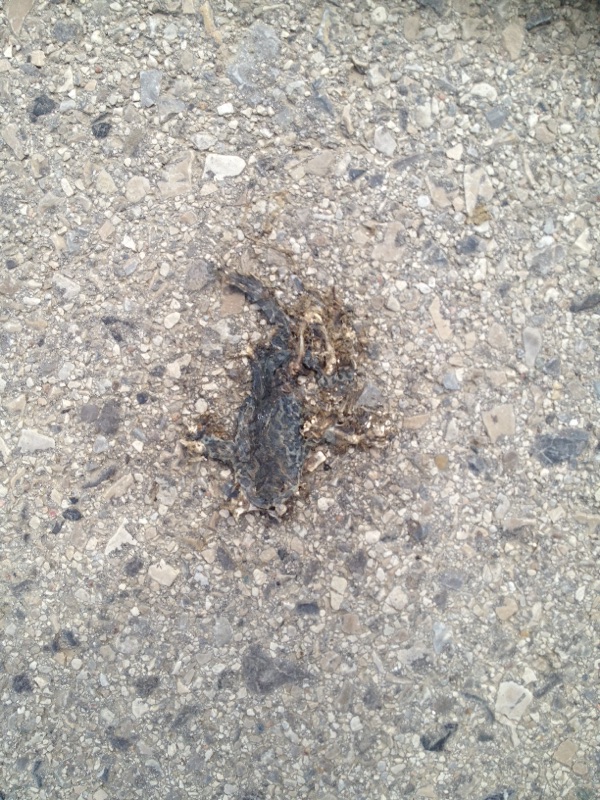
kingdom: Animalia
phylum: Chordata
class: Amphibia
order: Anura
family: Bufonidae
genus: Bufotes
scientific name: Bufotes viridis
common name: European green toad
